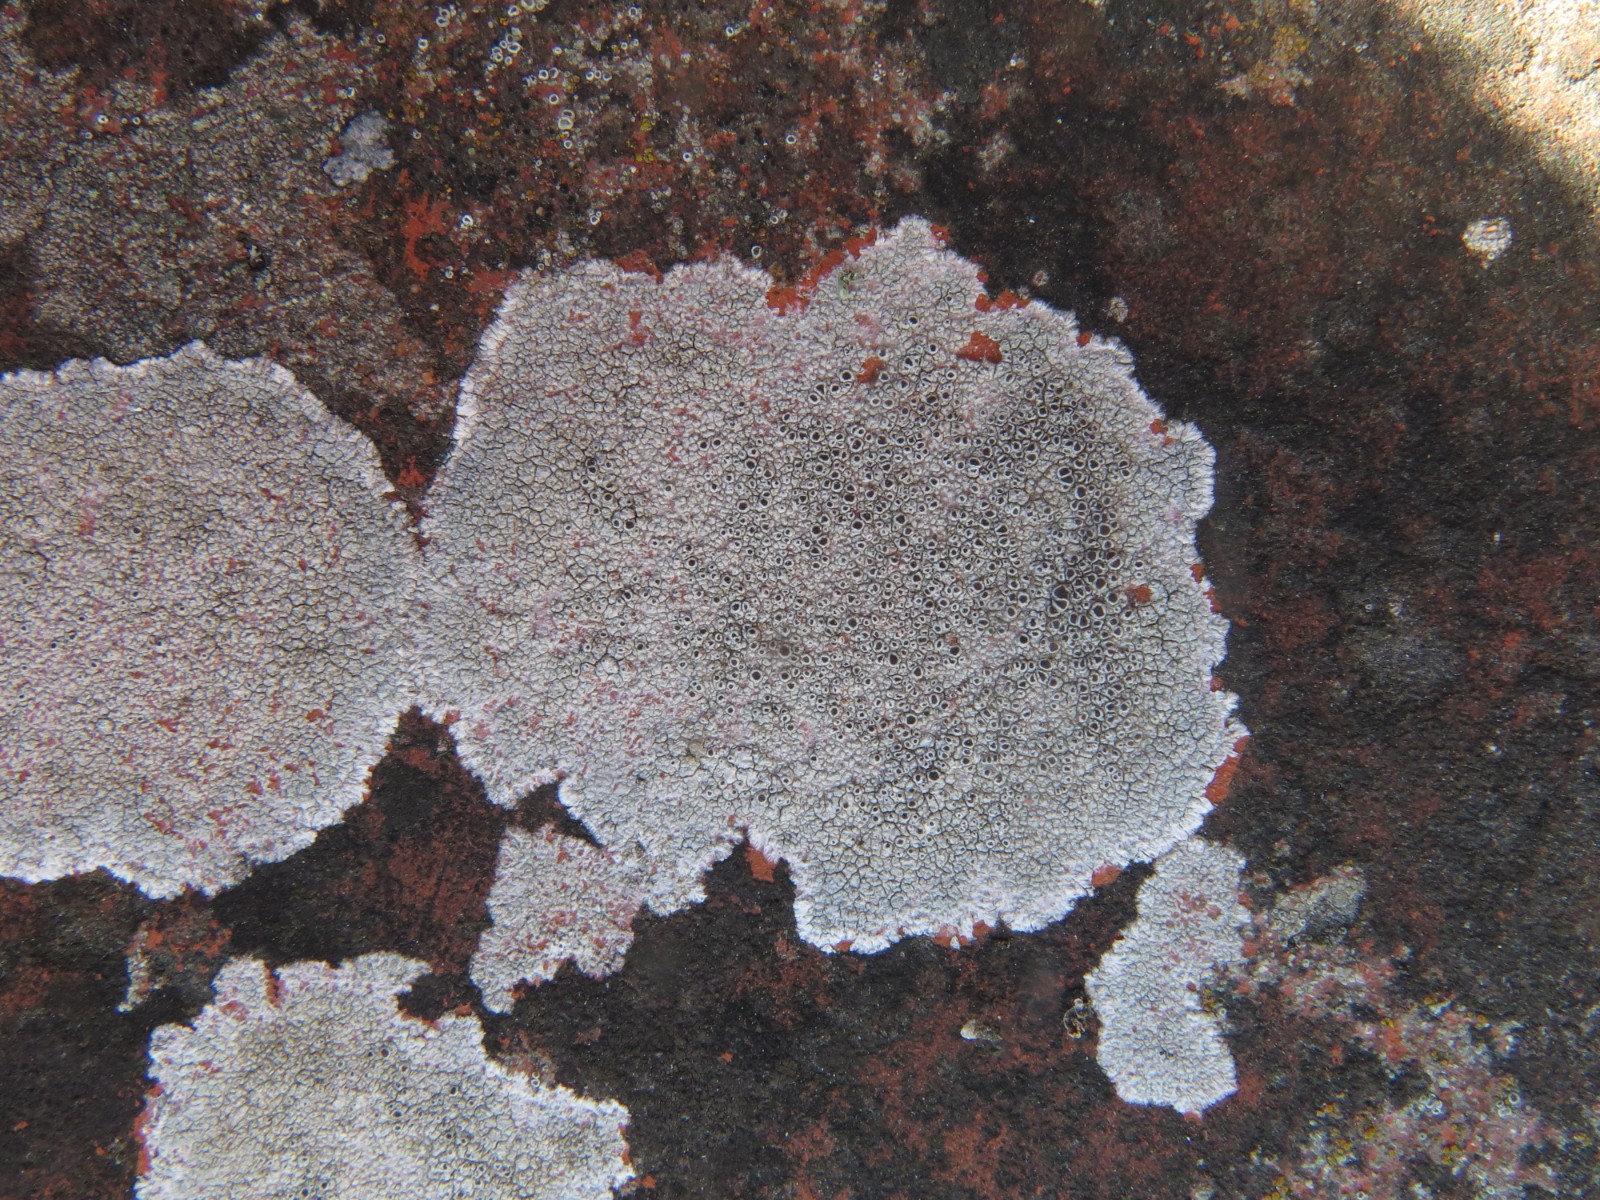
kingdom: Fungi
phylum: Ascomycota
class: Lecanoromycetes
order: Lecanorales
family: Lecanoraceae
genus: Lecanora
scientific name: Lecanora campestris
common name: mur-kantskivelav
